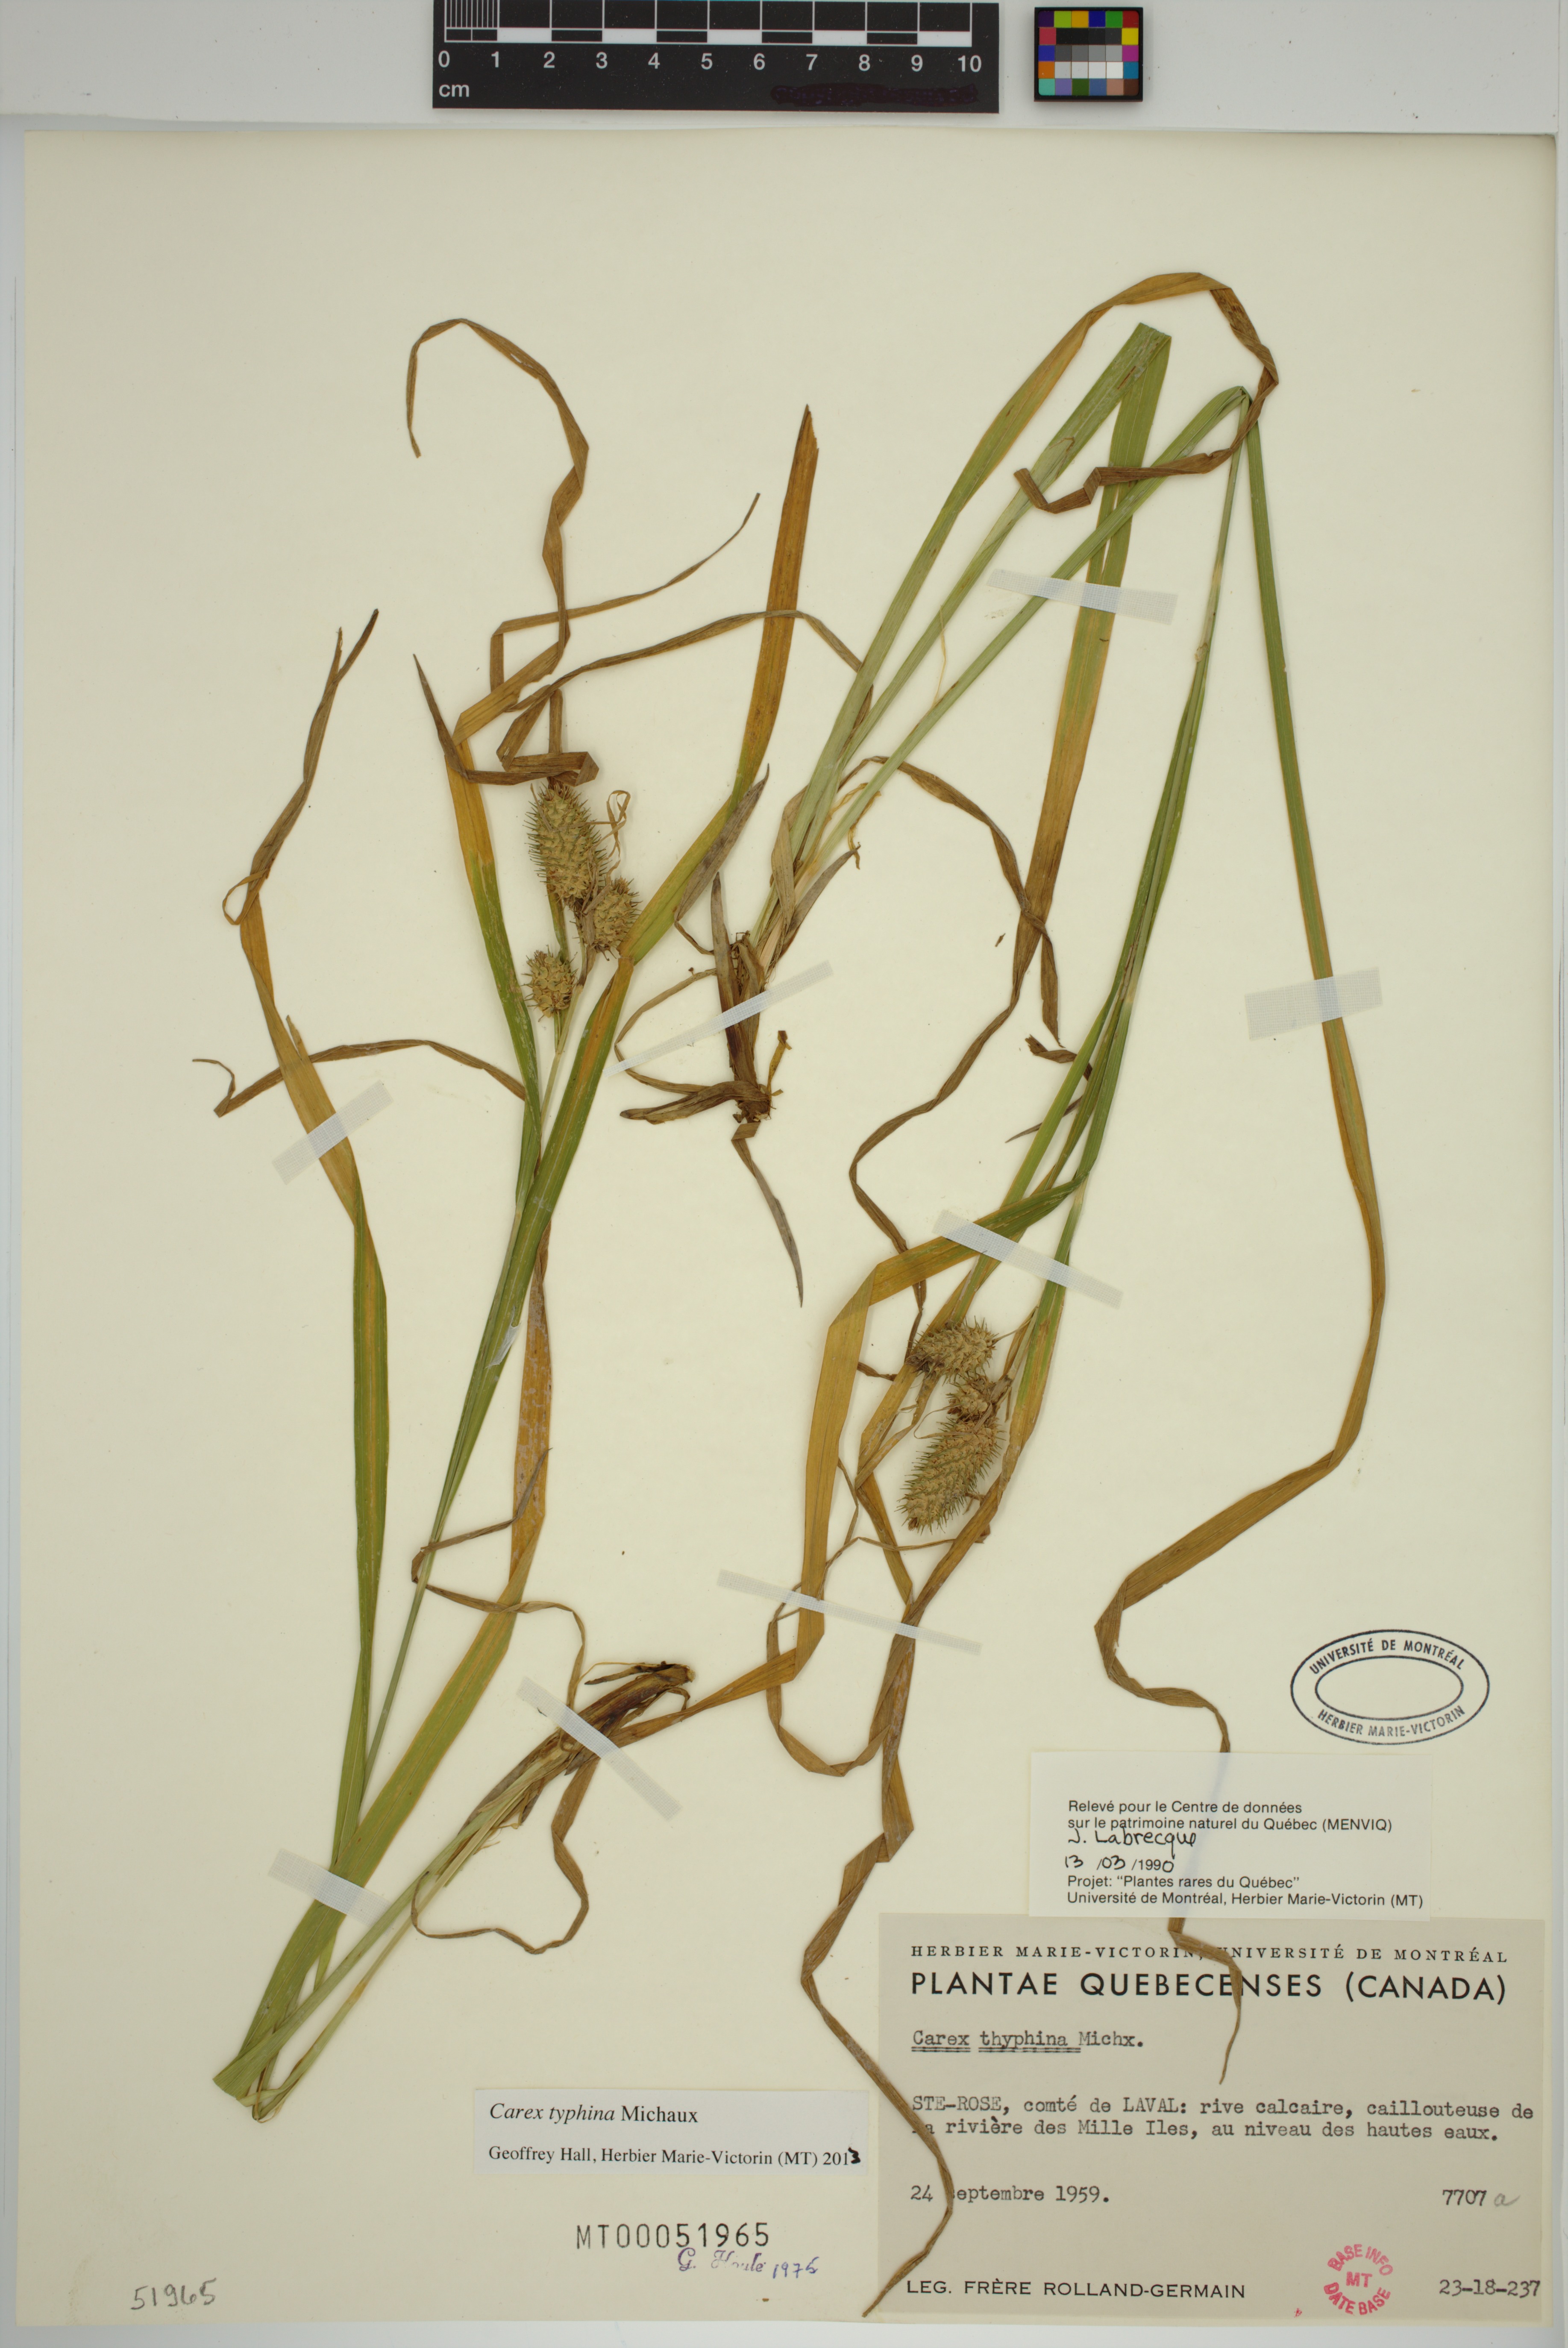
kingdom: Plantae
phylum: Tracheophyta
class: Liliopsida
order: Poales
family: Cyperaceae
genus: Carex
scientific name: Carex typhina
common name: Cattail sedge
